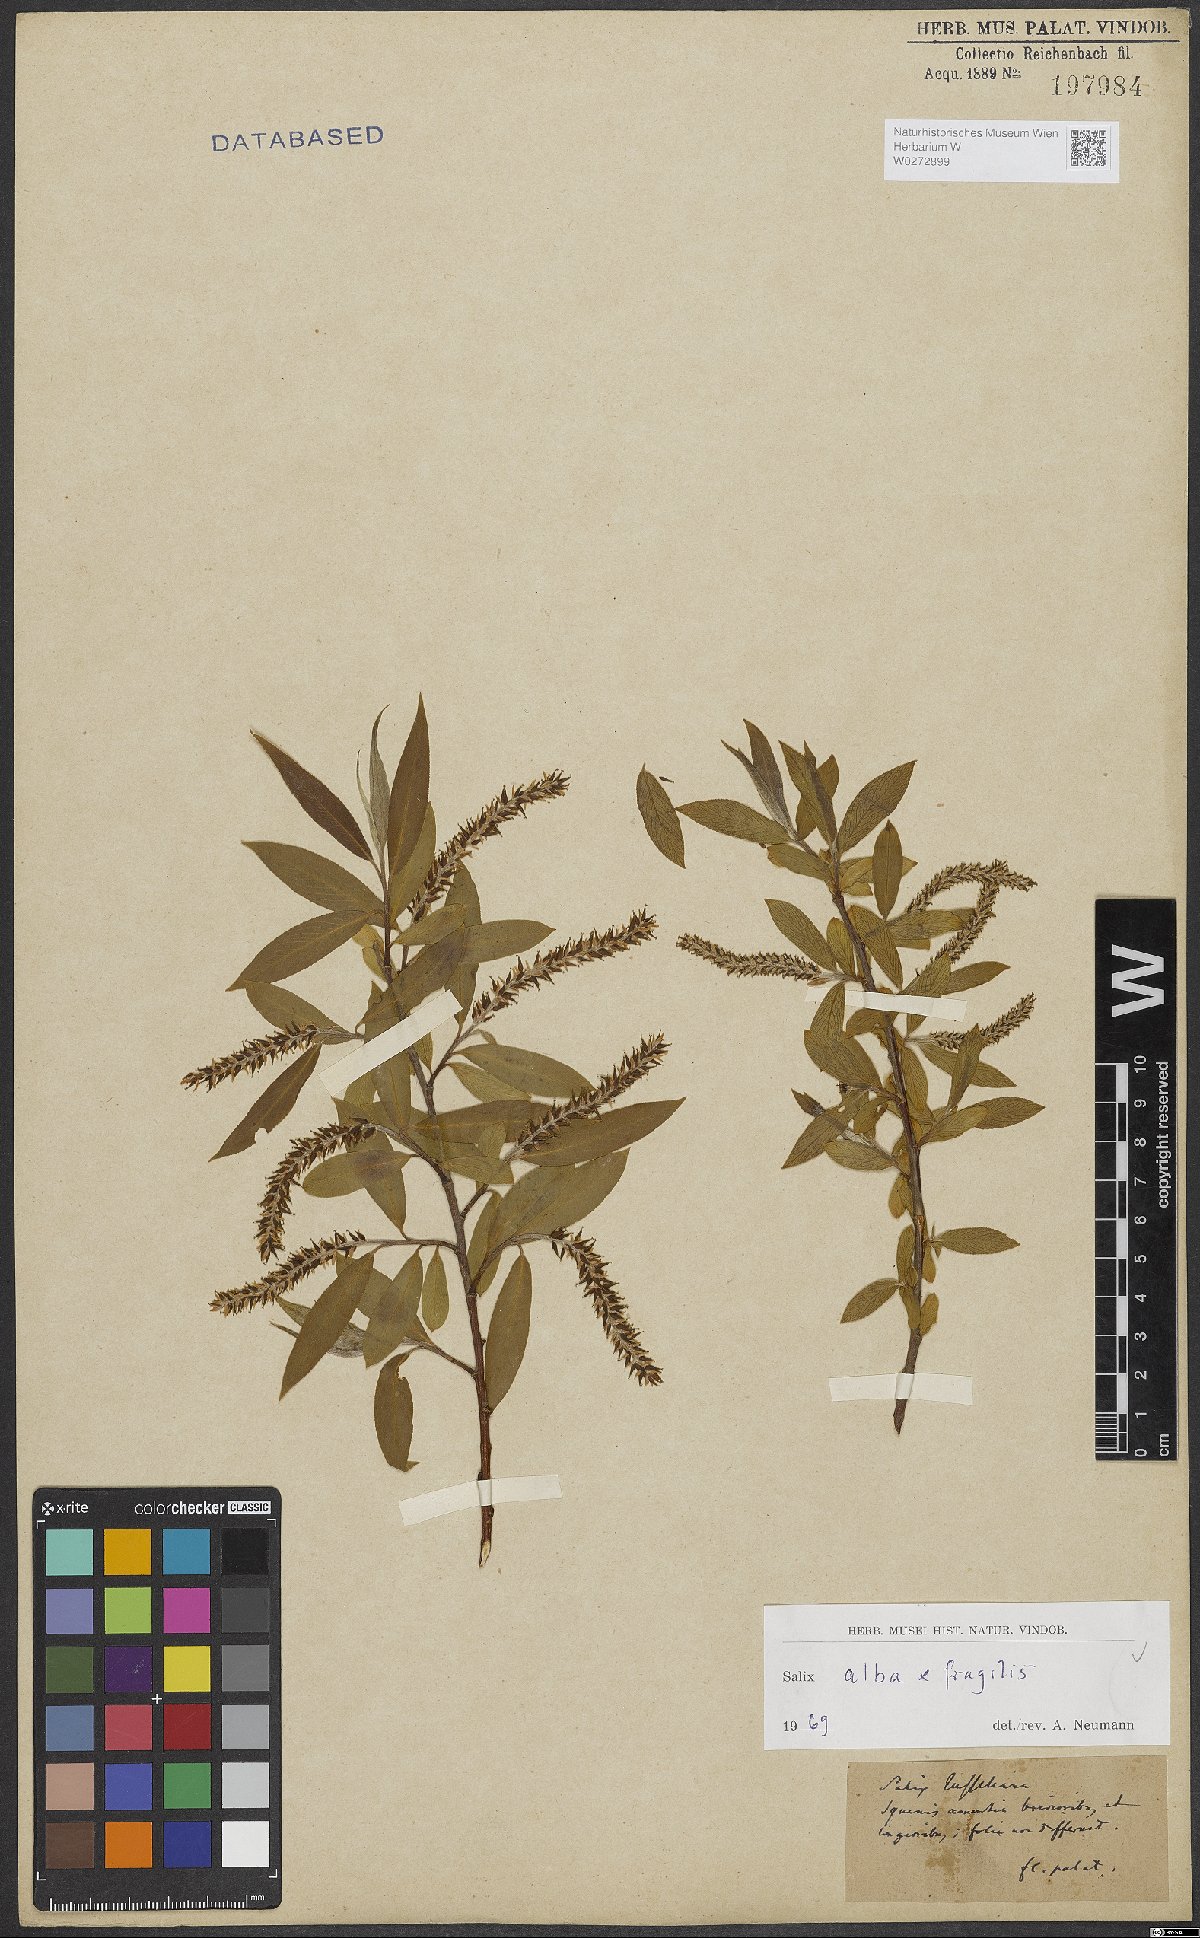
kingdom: Plantae
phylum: Tracheophyta
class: Magnoliopsida
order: Malpighiales
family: Salicaceae
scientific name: Salicaceae
